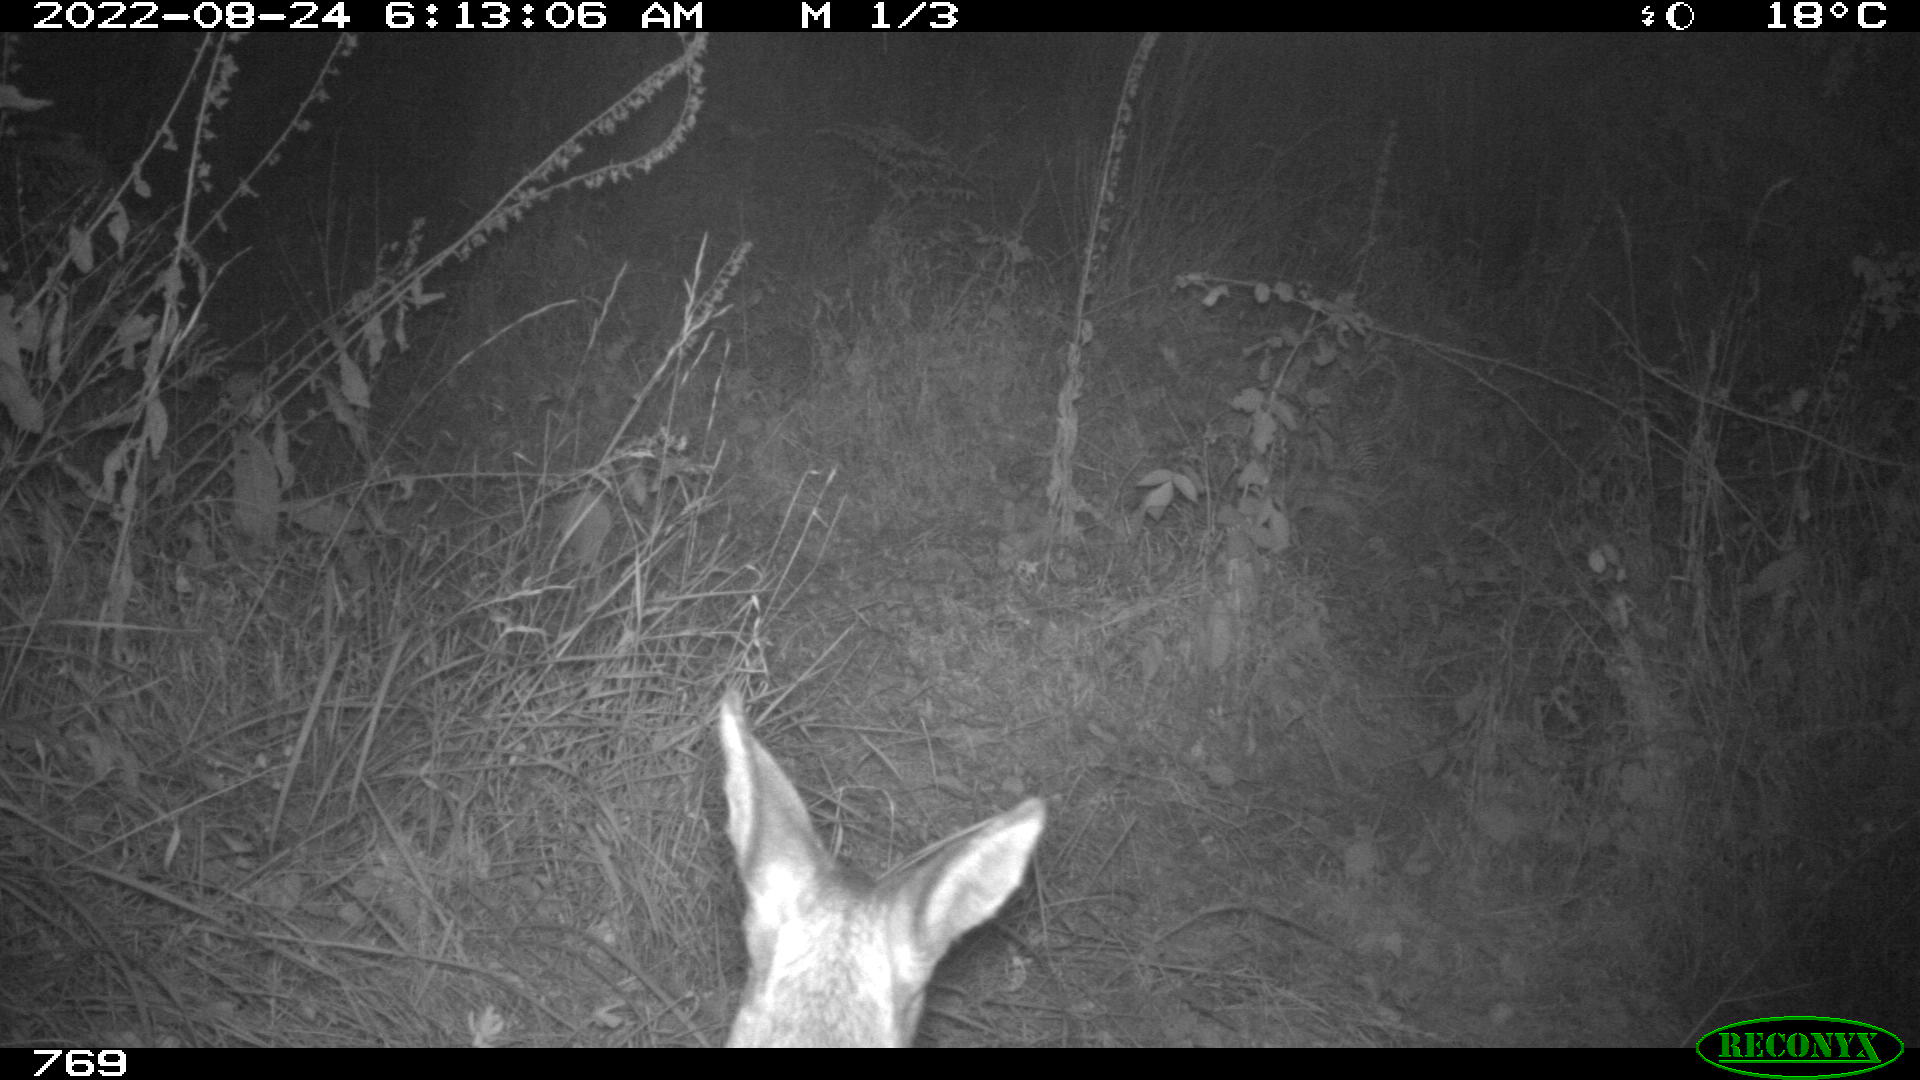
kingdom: Animalia
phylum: Chordata
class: Mammalia
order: Artiodactyla
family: Cervidae
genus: Capreolus
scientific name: Capreolus capreolus
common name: Western roe deer
